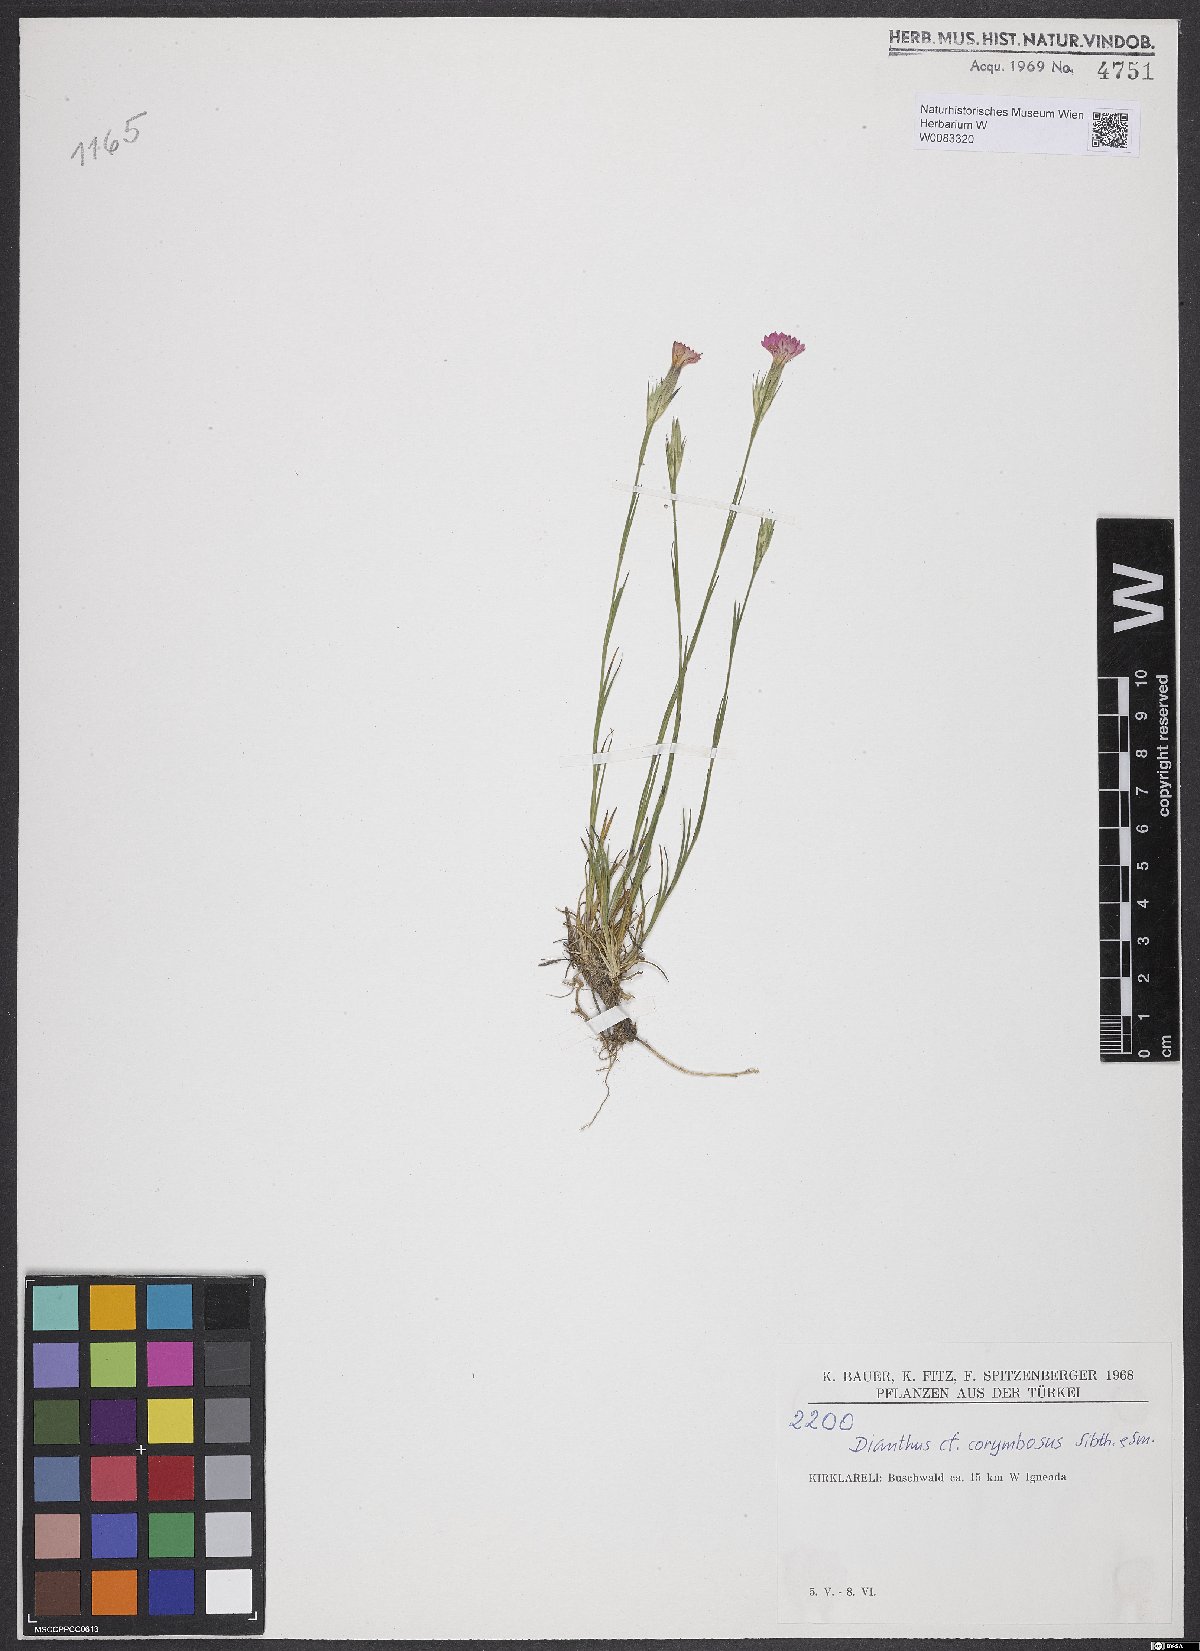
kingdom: Plantae
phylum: Tracheophyta
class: Magnoliopsida
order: Caryophyllales
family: Caryophyllaceae
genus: Dianthus
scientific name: Dianthus corymbosus
